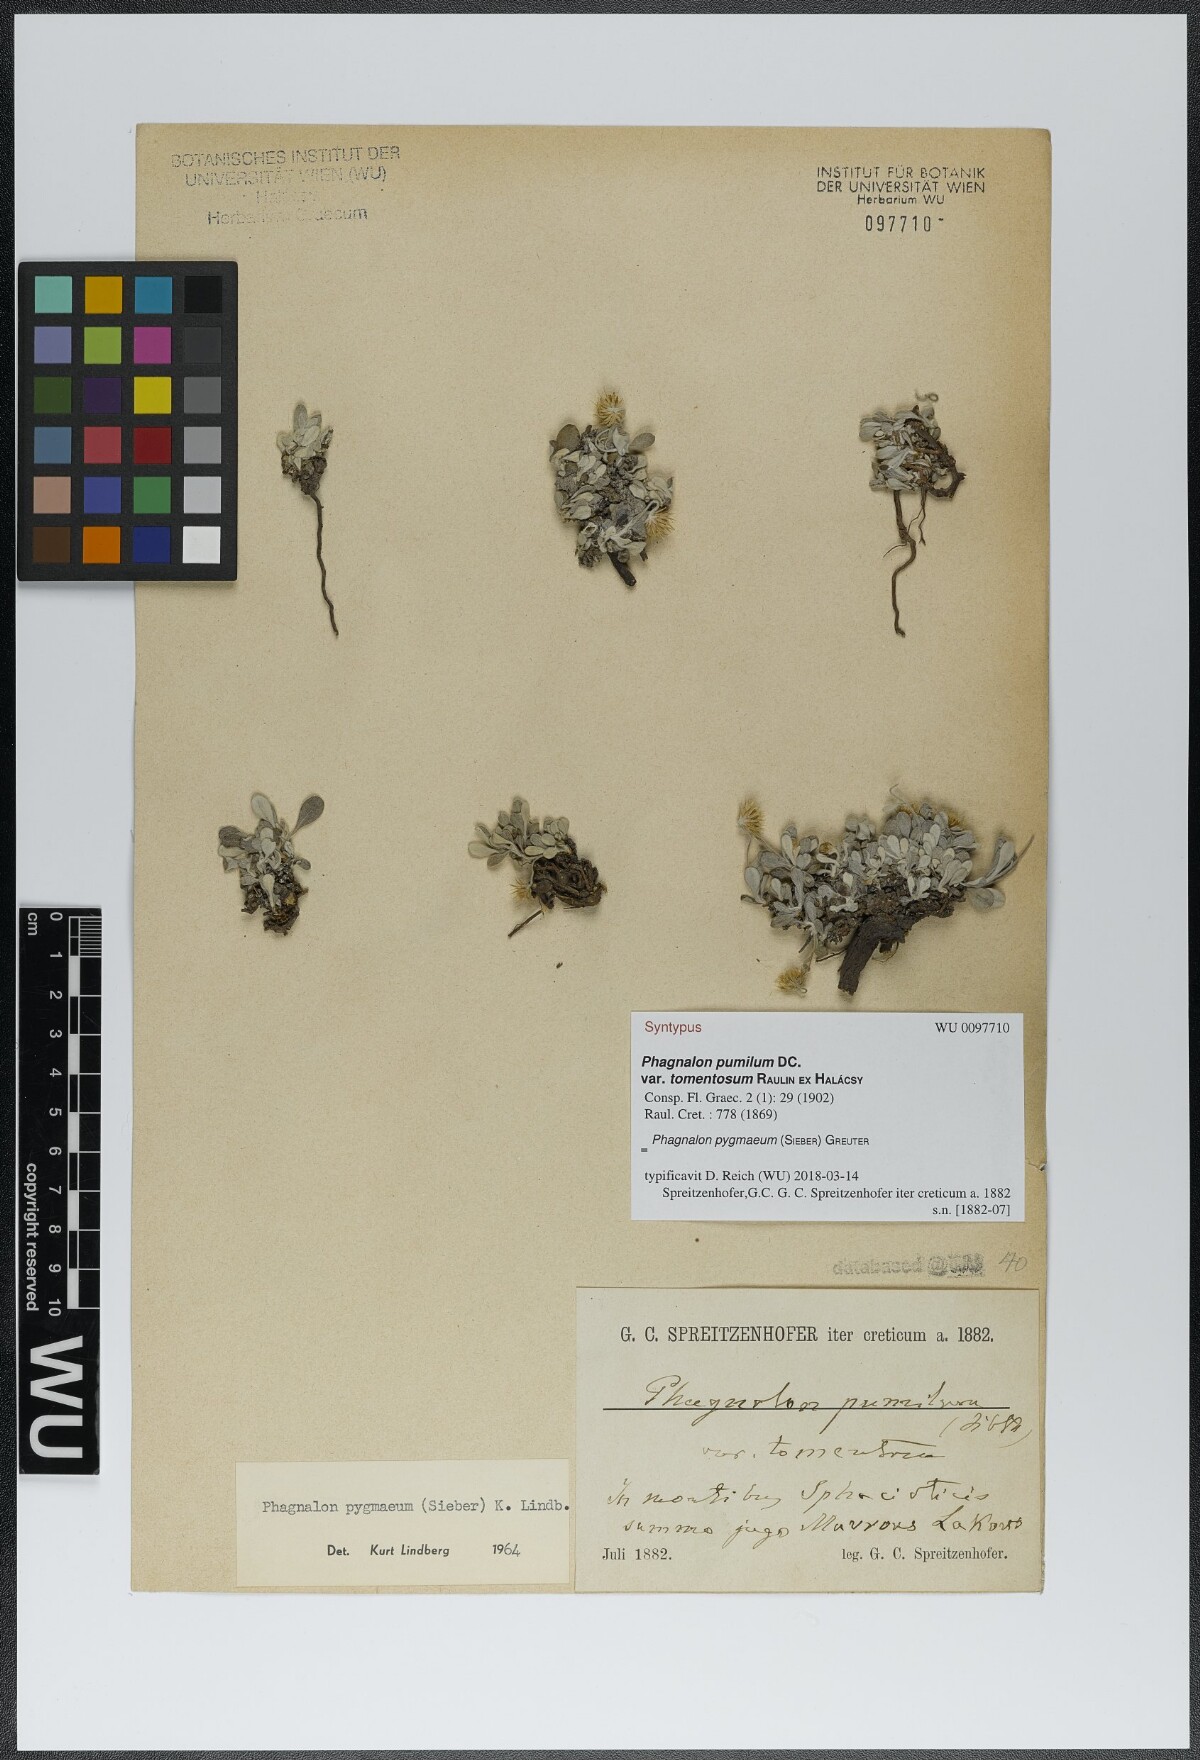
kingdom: Plantae
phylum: Tracheophyta
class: Magnoliopsida
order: Asterales
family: Asteraceae
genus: Phagnalon
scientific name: Phagnalon pygmaeum
